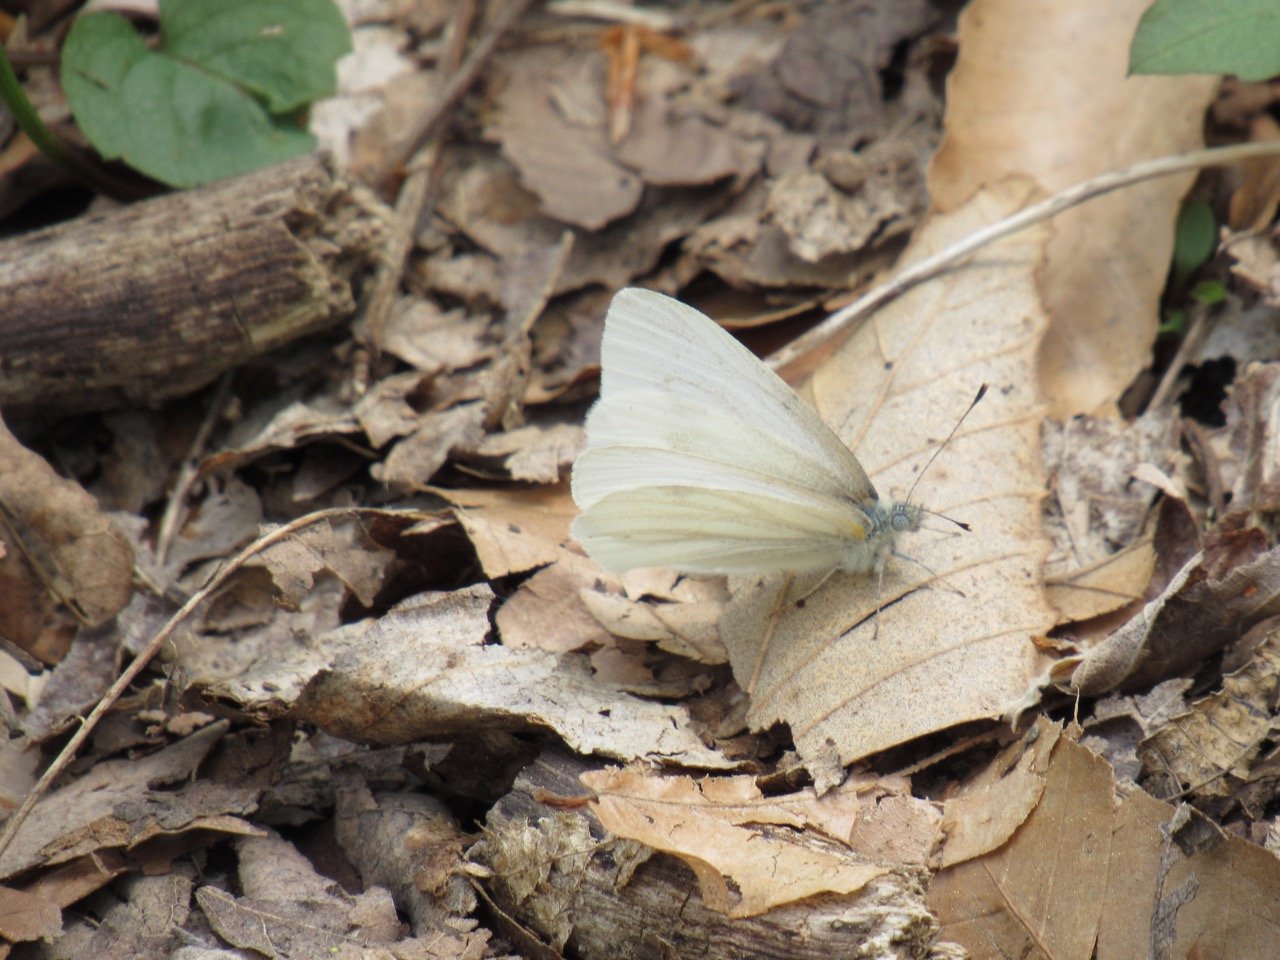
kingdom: Animalia
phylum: Arthropoda
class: Insecta
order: Lepidoptera
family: Pieridae
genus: Pieris
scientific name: Pieris virginiensis
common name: West Virginia White
